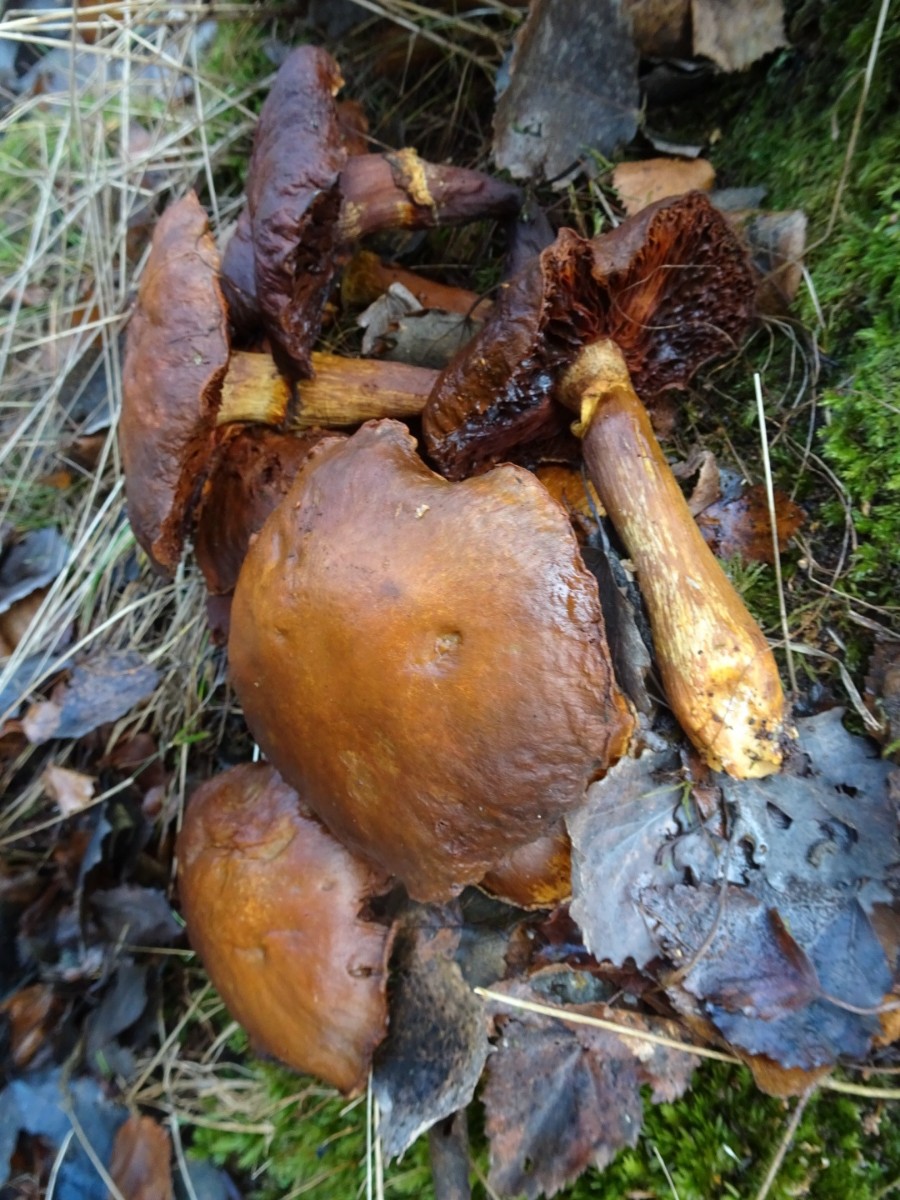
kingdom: Fungi
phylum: Basidiomycota
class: Agaricomycetes
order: Agaricales
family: Hymenogastraceae
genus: Gymnopilus
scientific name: Gymnopilus spectabilis
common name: fibret flammehat
